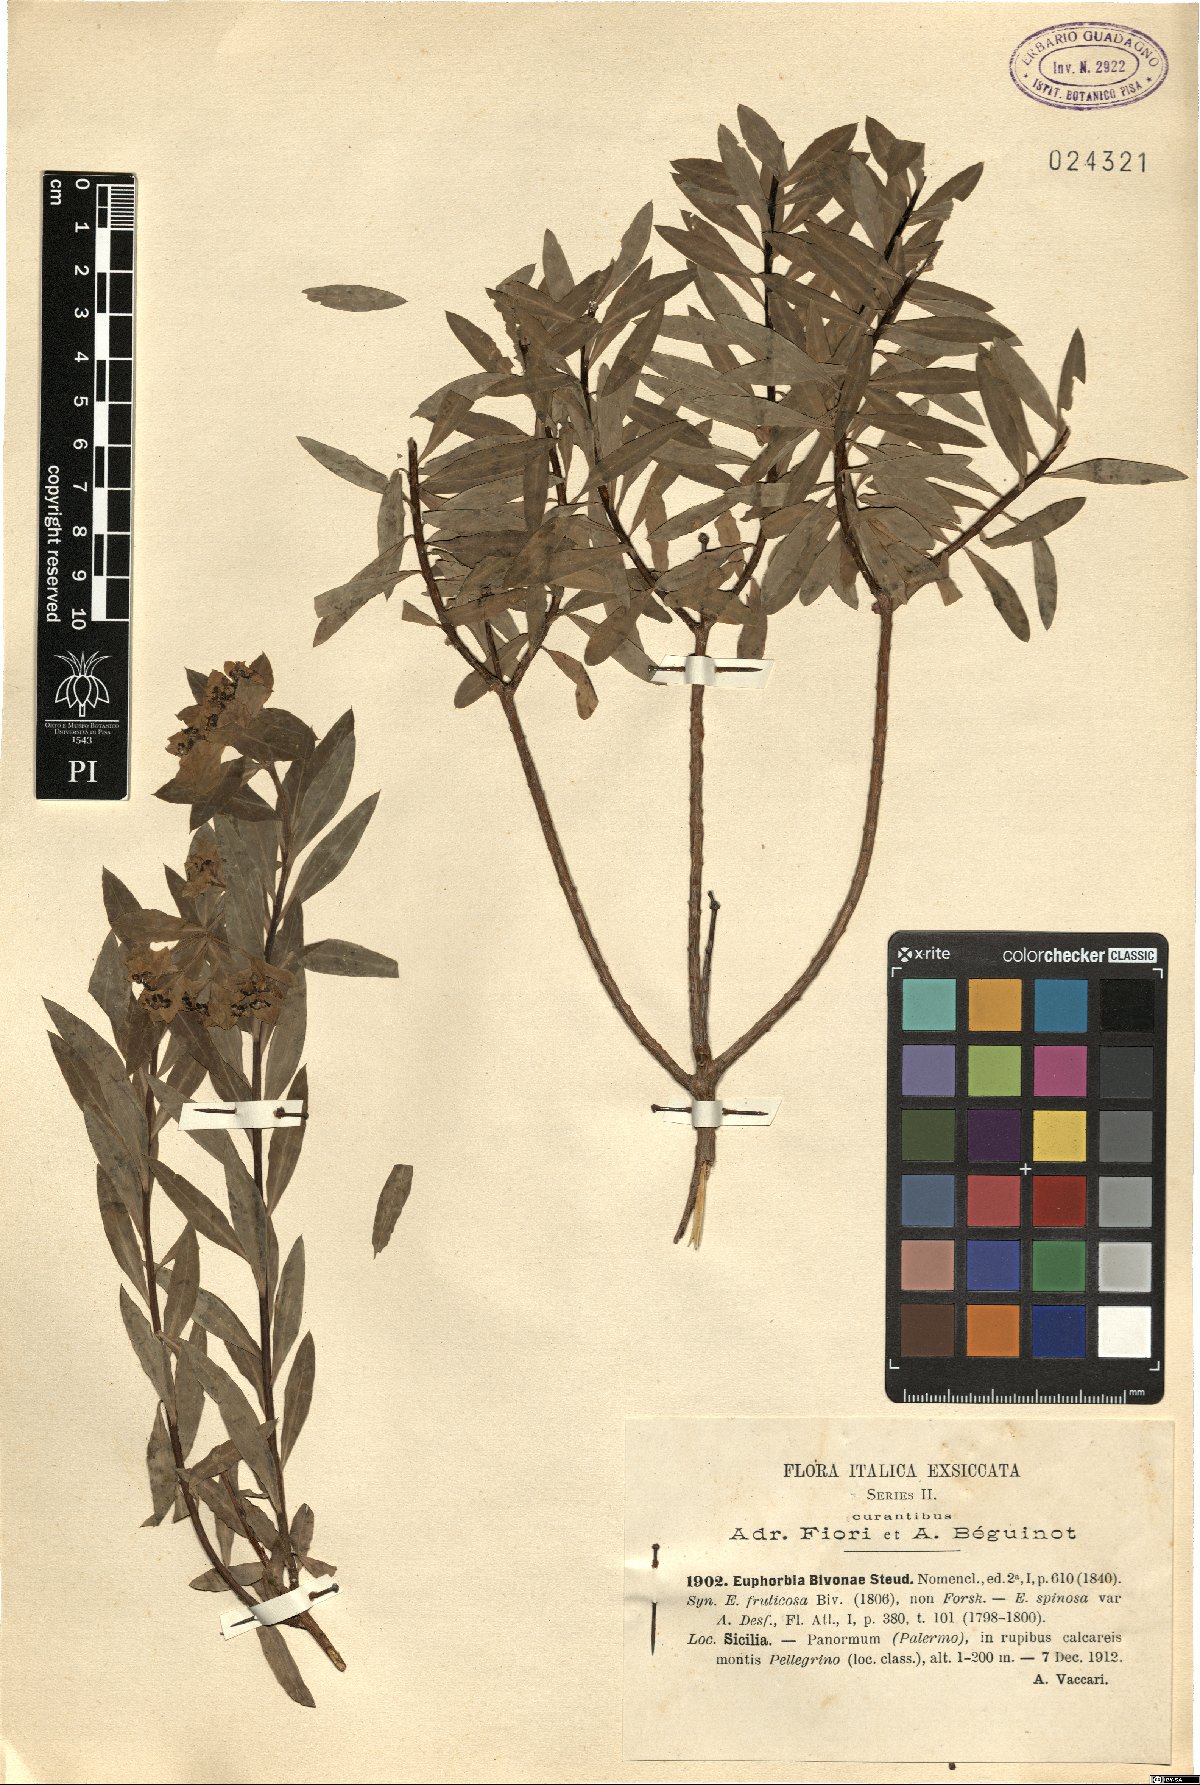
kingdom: Plantae
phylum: Tracheophyta
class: Magnoliopsida
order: Malpighiales
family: Euphorbiaceae
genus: Euphorbia
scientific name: Euphorbia bivonae
